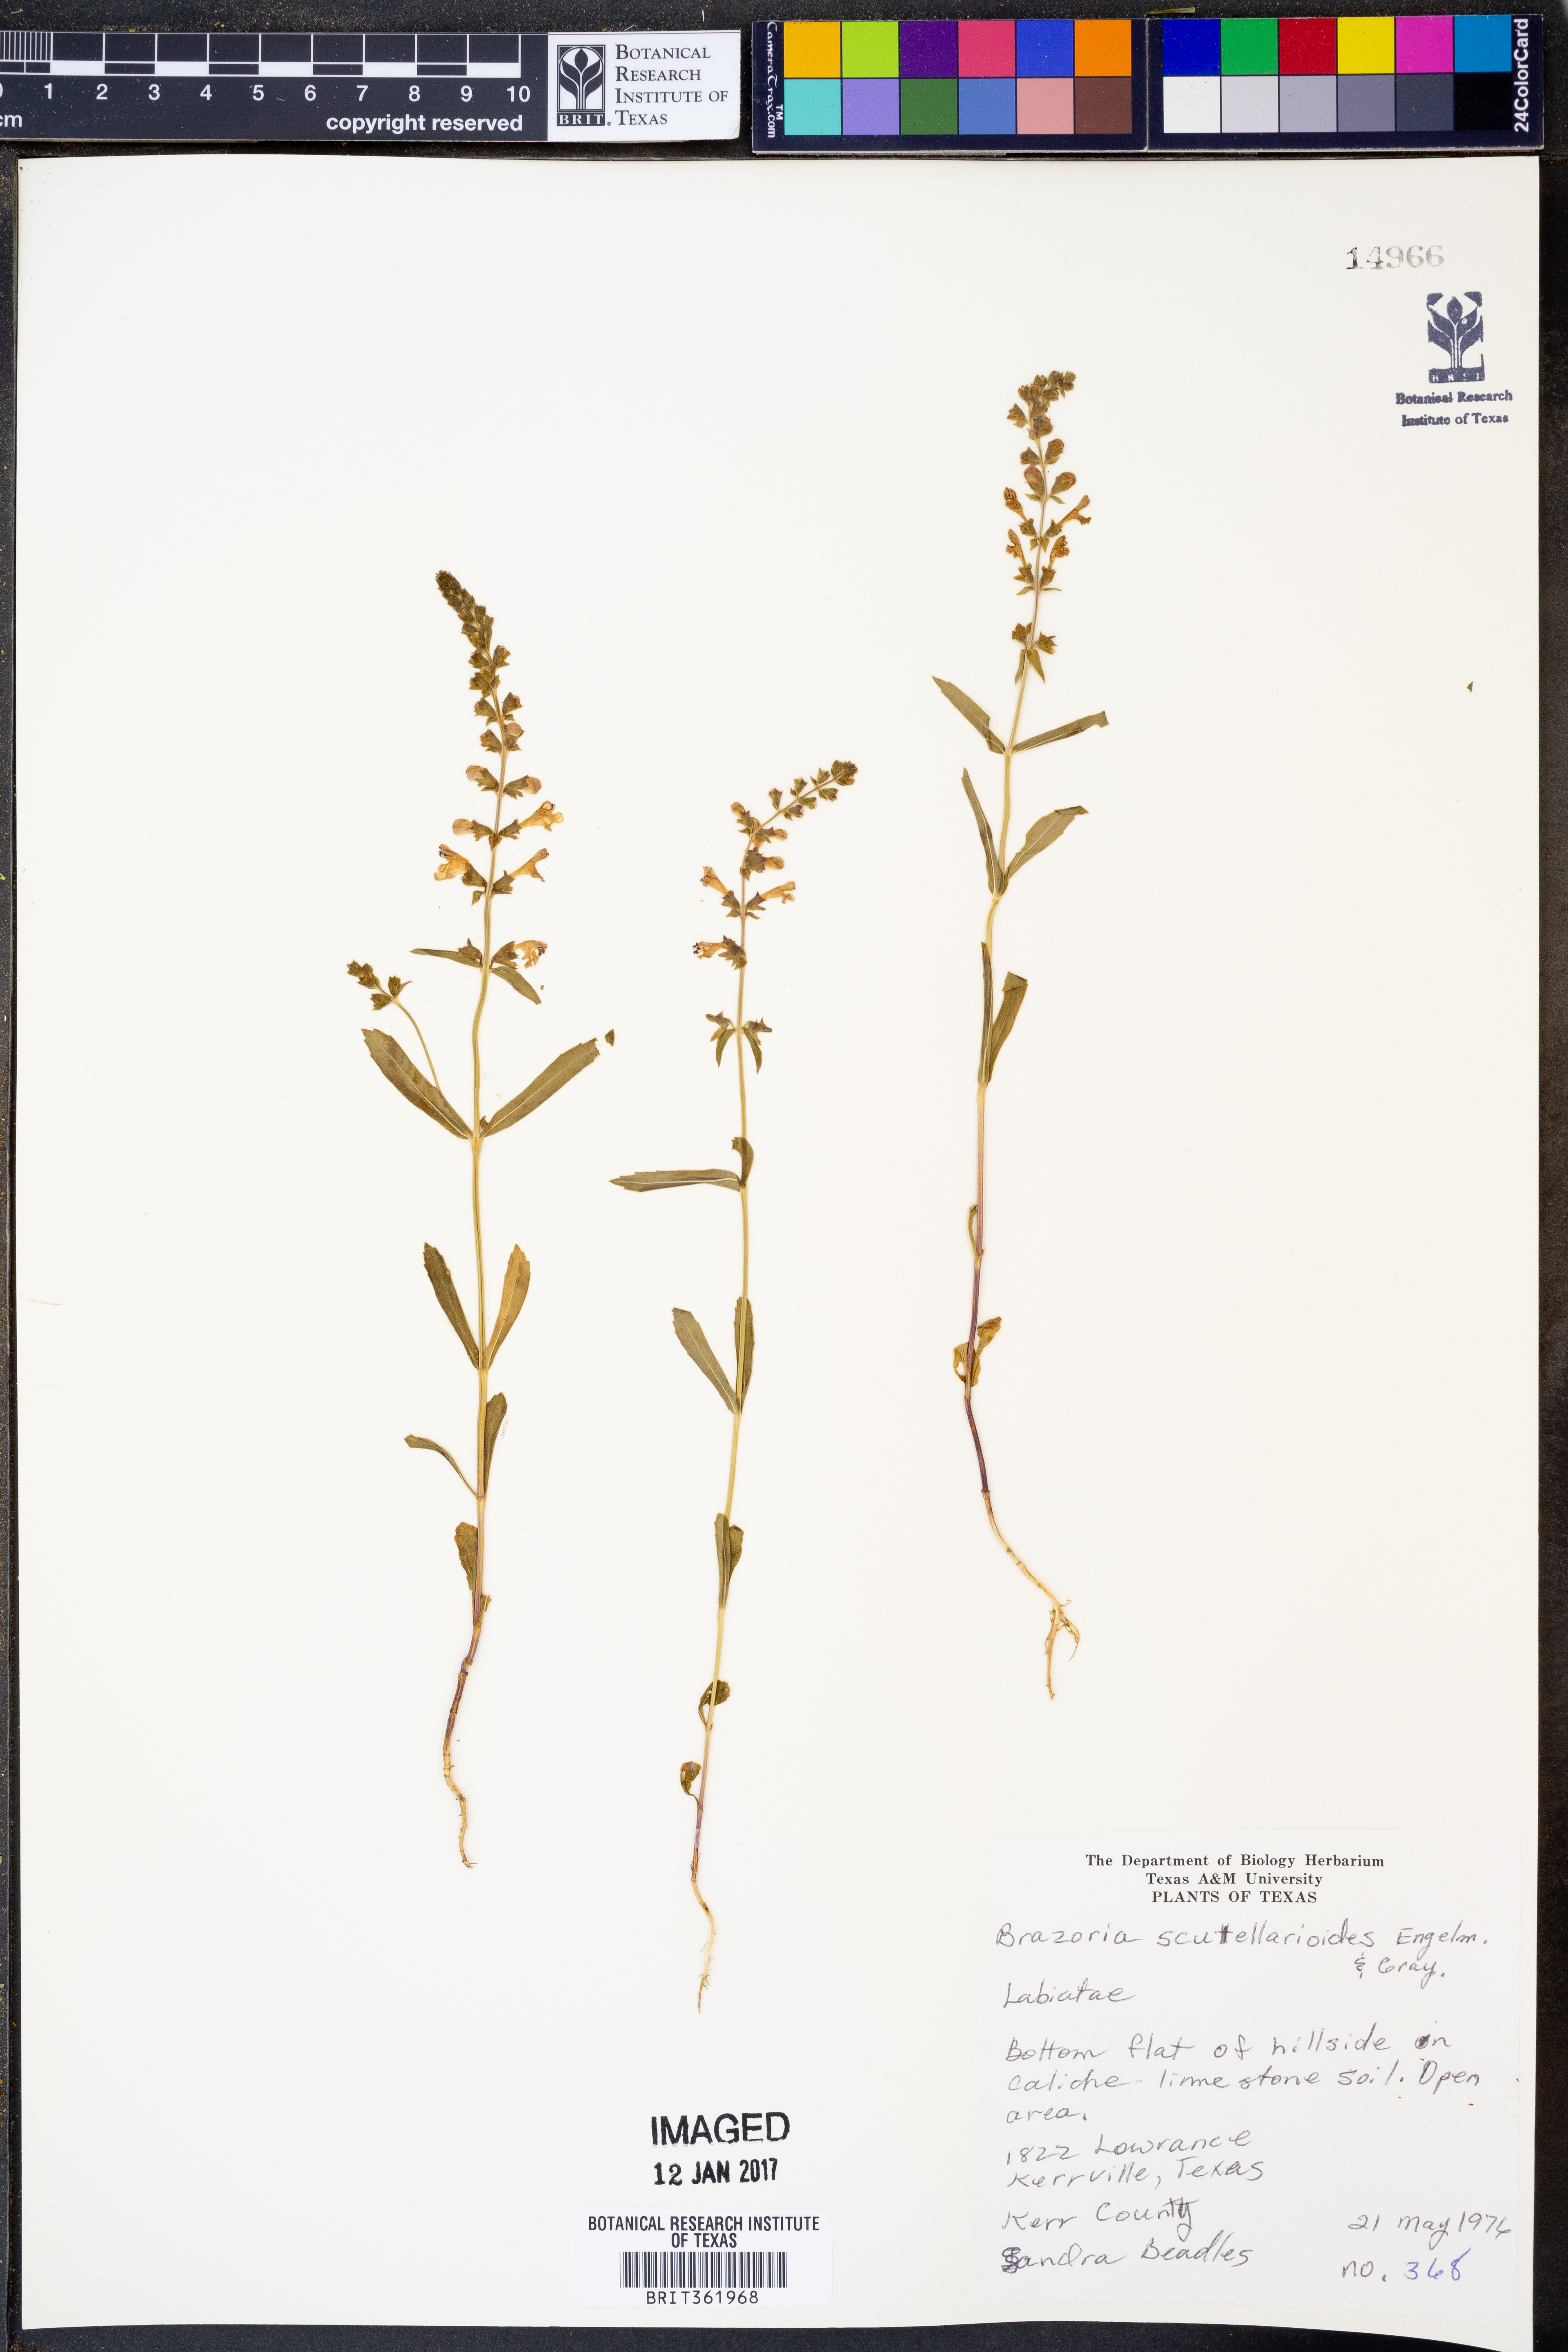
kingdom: Plantae
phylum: Tracheophyta
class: Magnoliopsida
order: Lamiales
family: Lamiaceae
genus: Warnockia
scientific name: Warnockia scutellarioides
